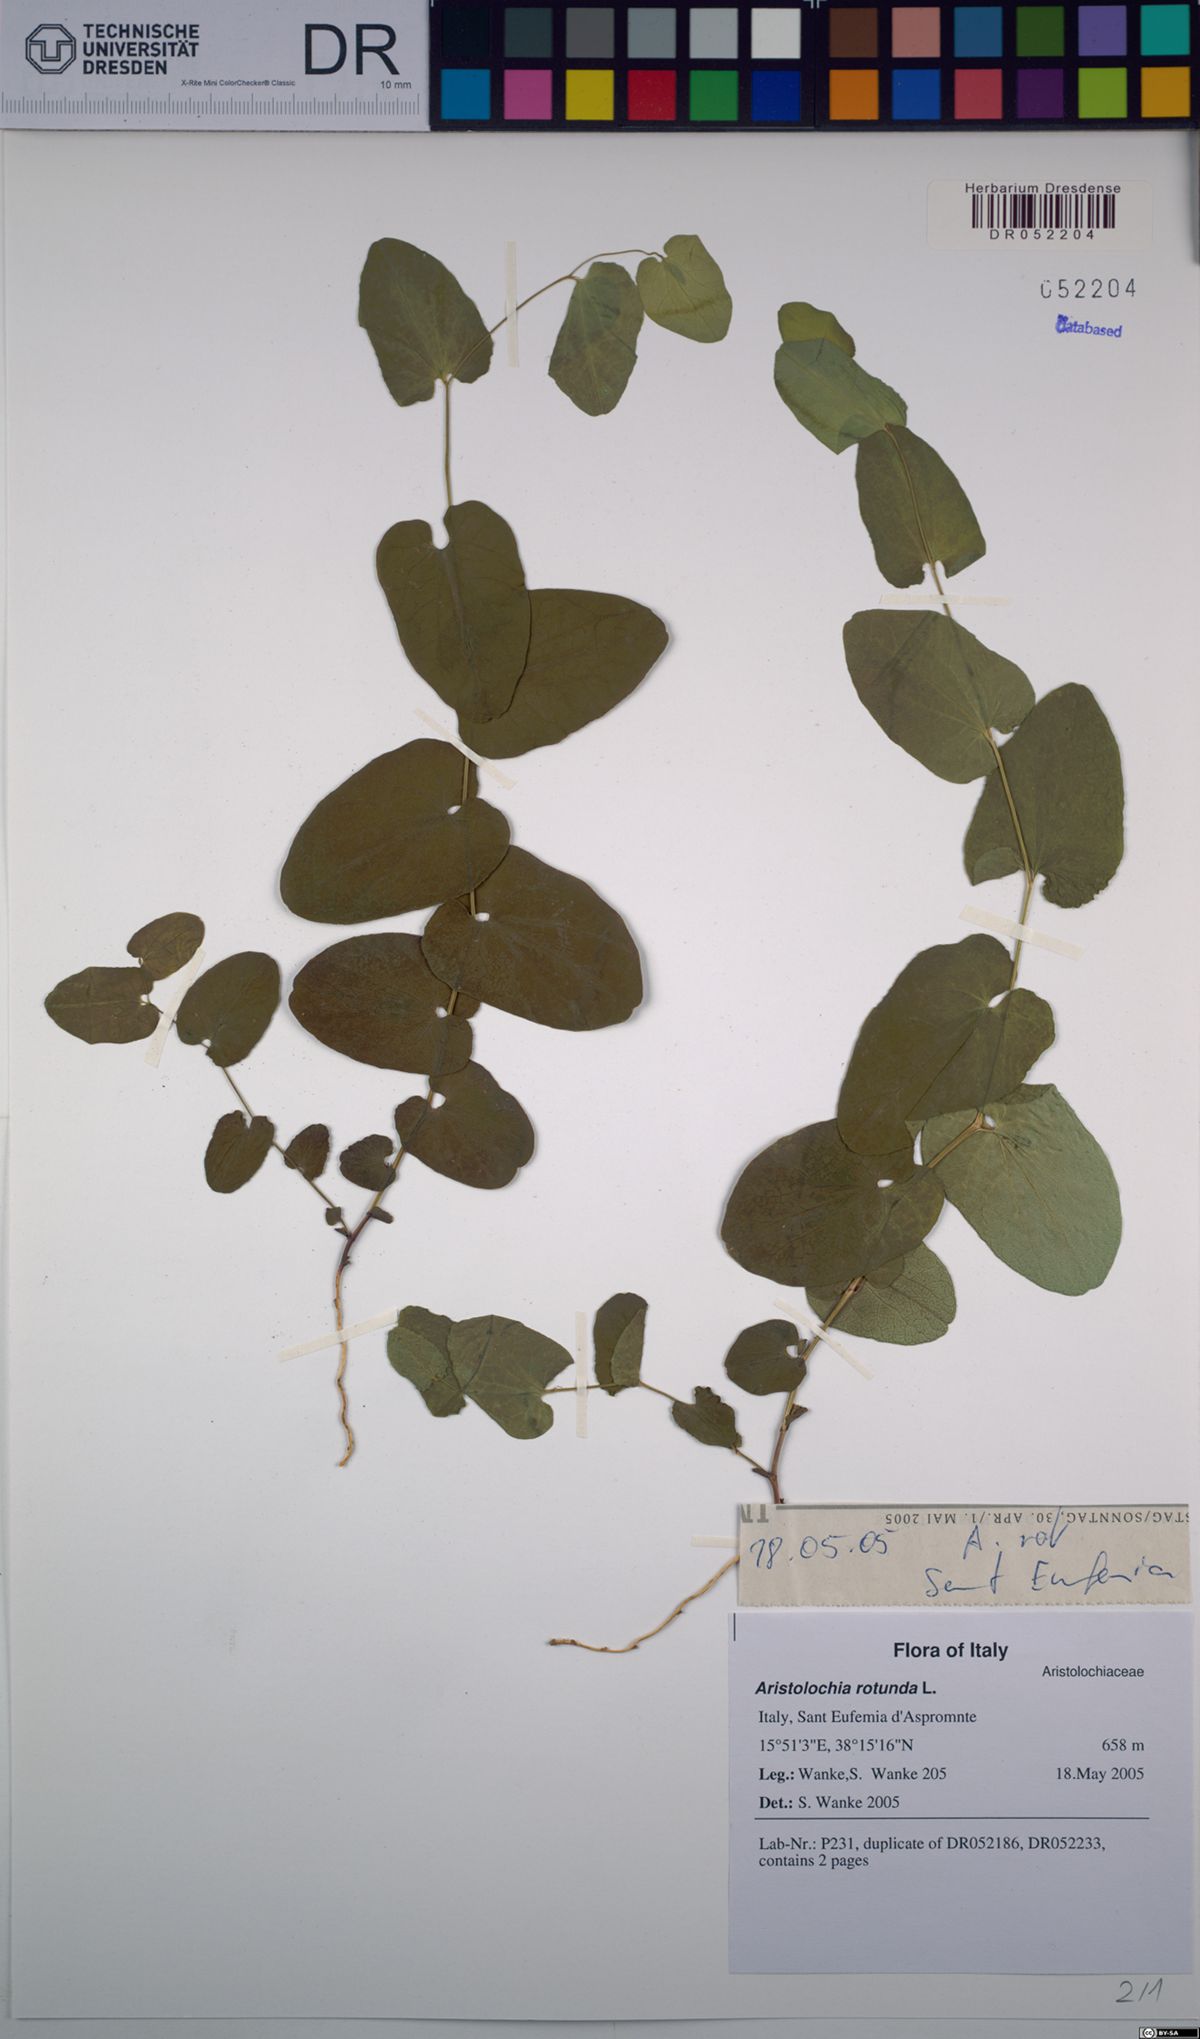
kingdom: Plantae
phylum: Tracheophyta
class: Magnoliopsida
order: Piperales
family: Aristolochiaceae
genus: Aristolochia
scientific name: Aristolochia rotunda
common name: Smearwort
